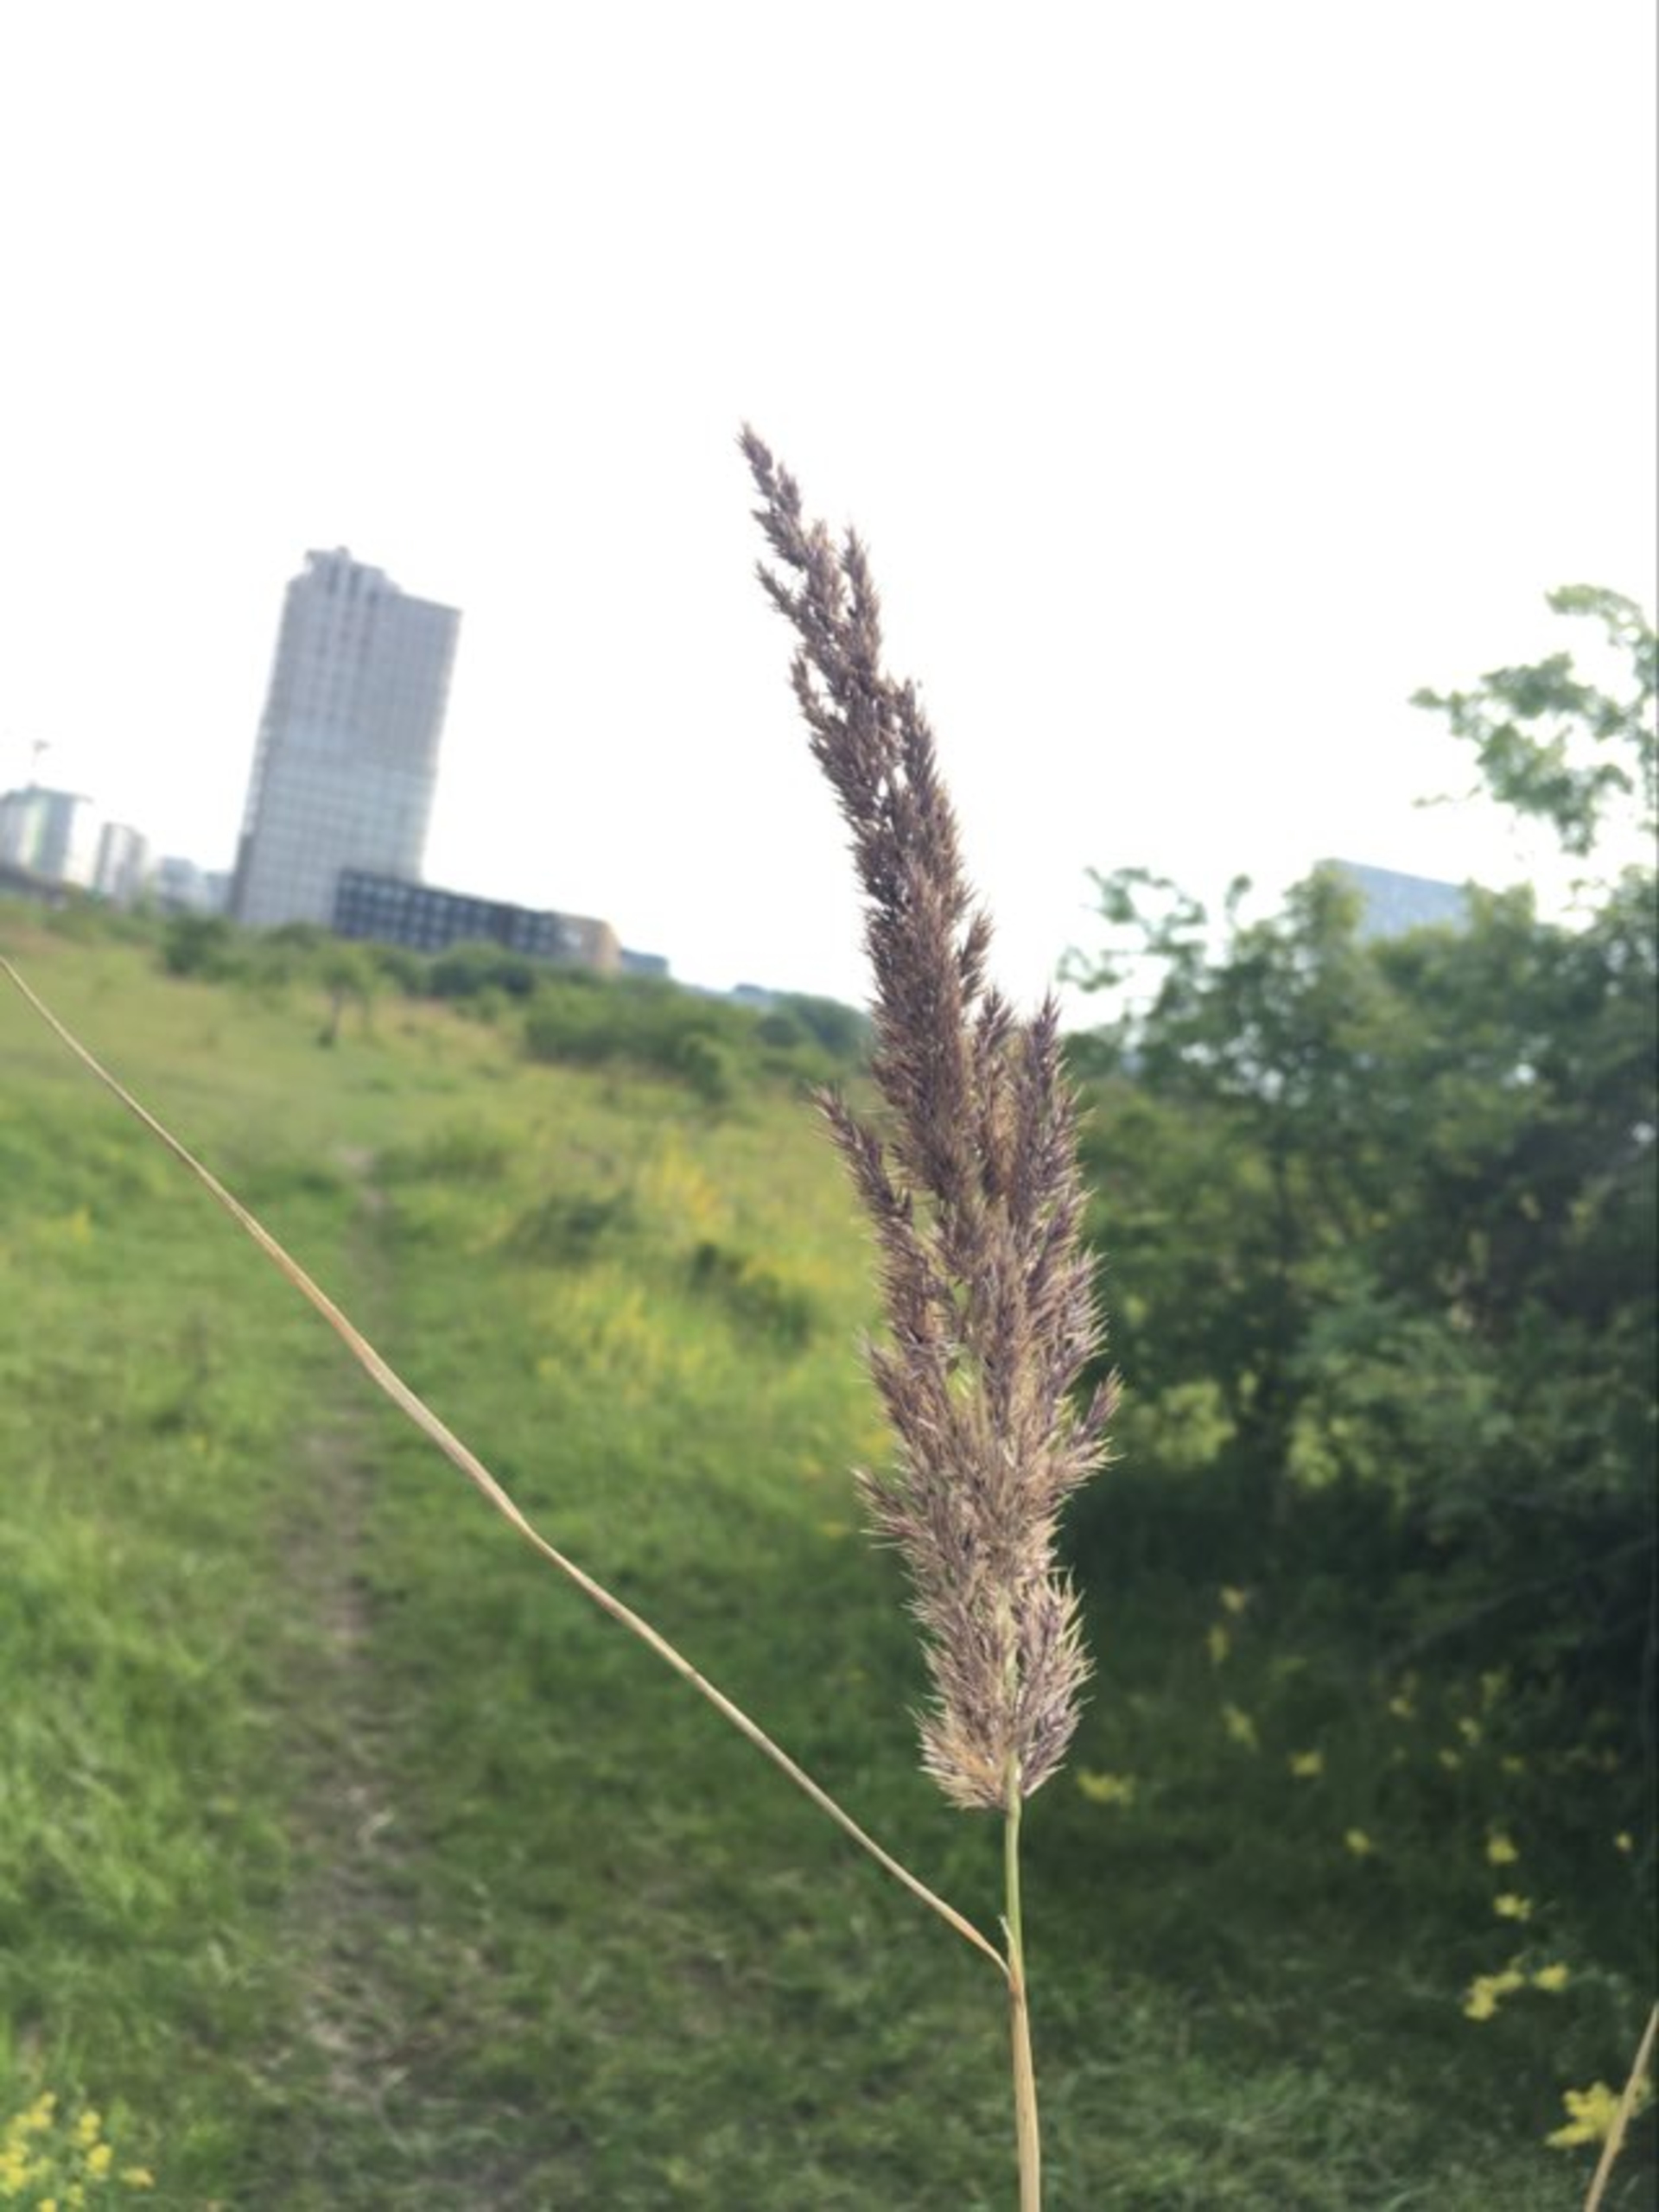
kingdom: Plantae
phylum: Tracheophyta
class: Liliopsida
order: Poales
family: Poaceae
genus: Calamagrostis
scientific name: Calamagrostis canescens
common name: Eng-rørhvene
